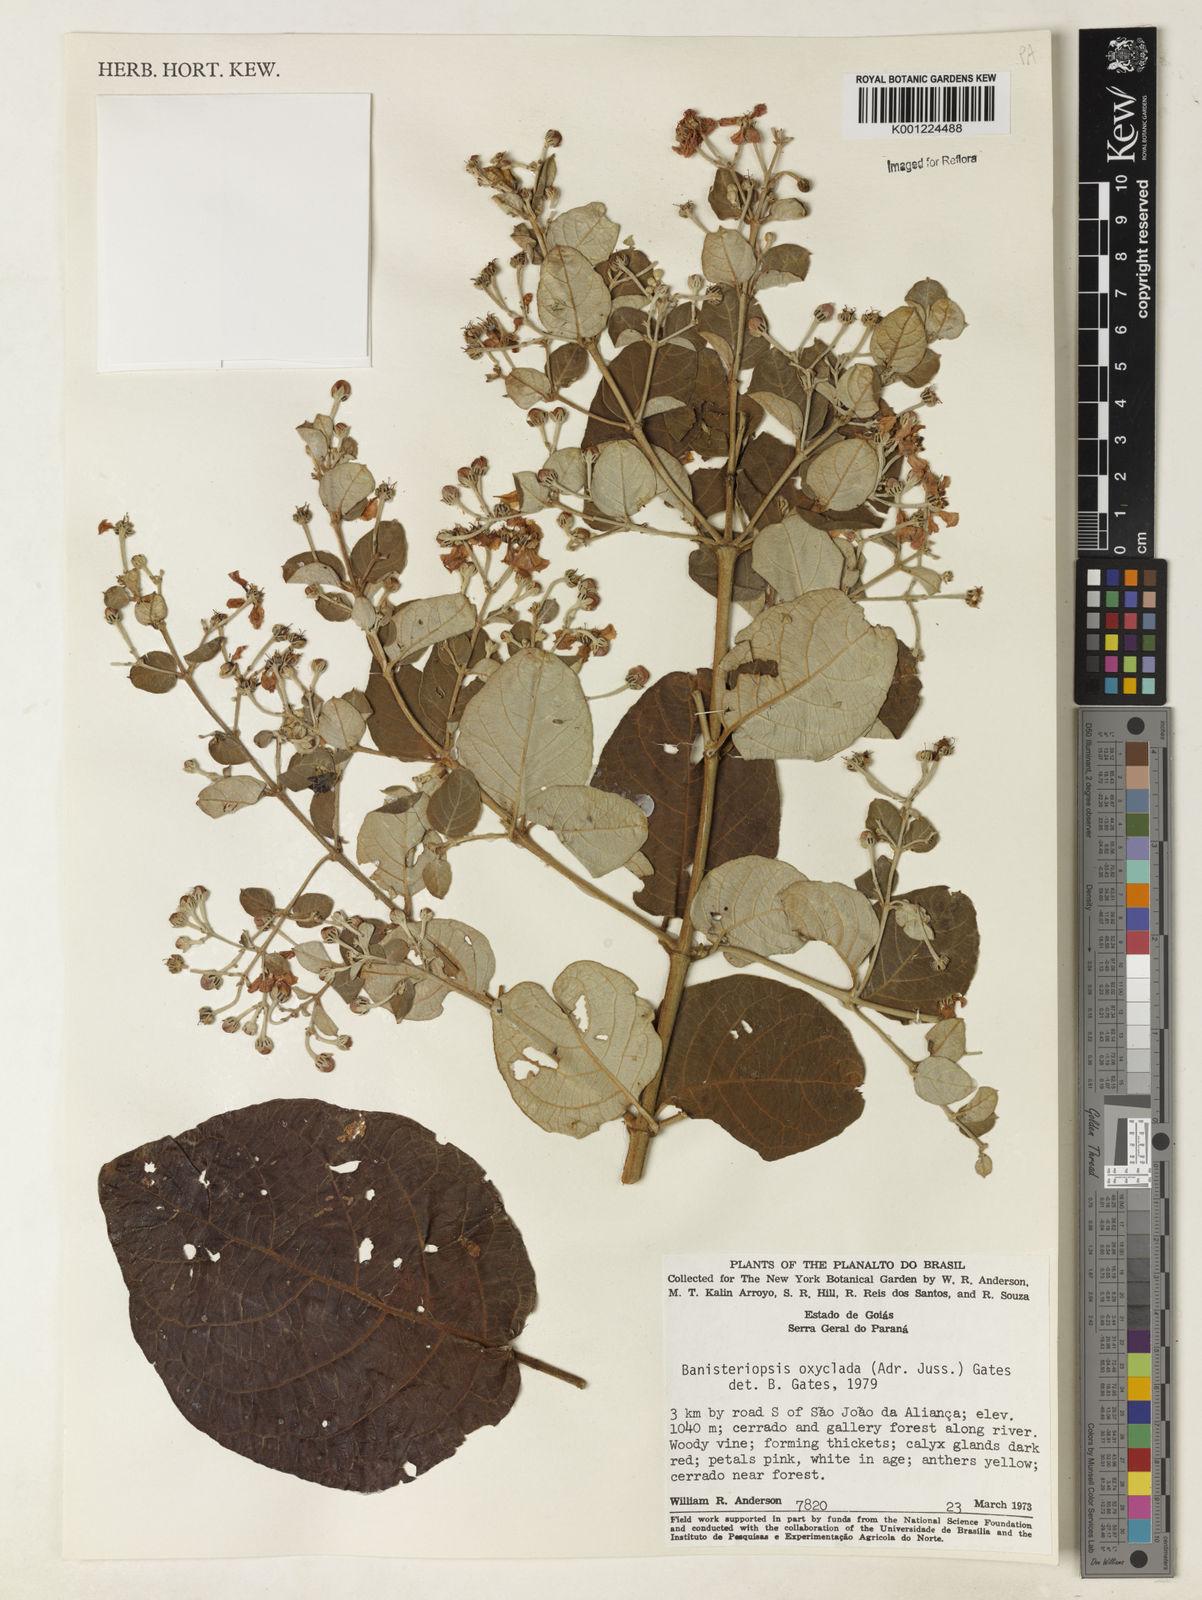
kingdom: Plantae
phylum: Tracheophyta
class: Magnoliopsida
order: Malpighiales
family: Malpighiaceae
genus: Banisteriopsis
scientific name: Banisteriopsis oxyclada
